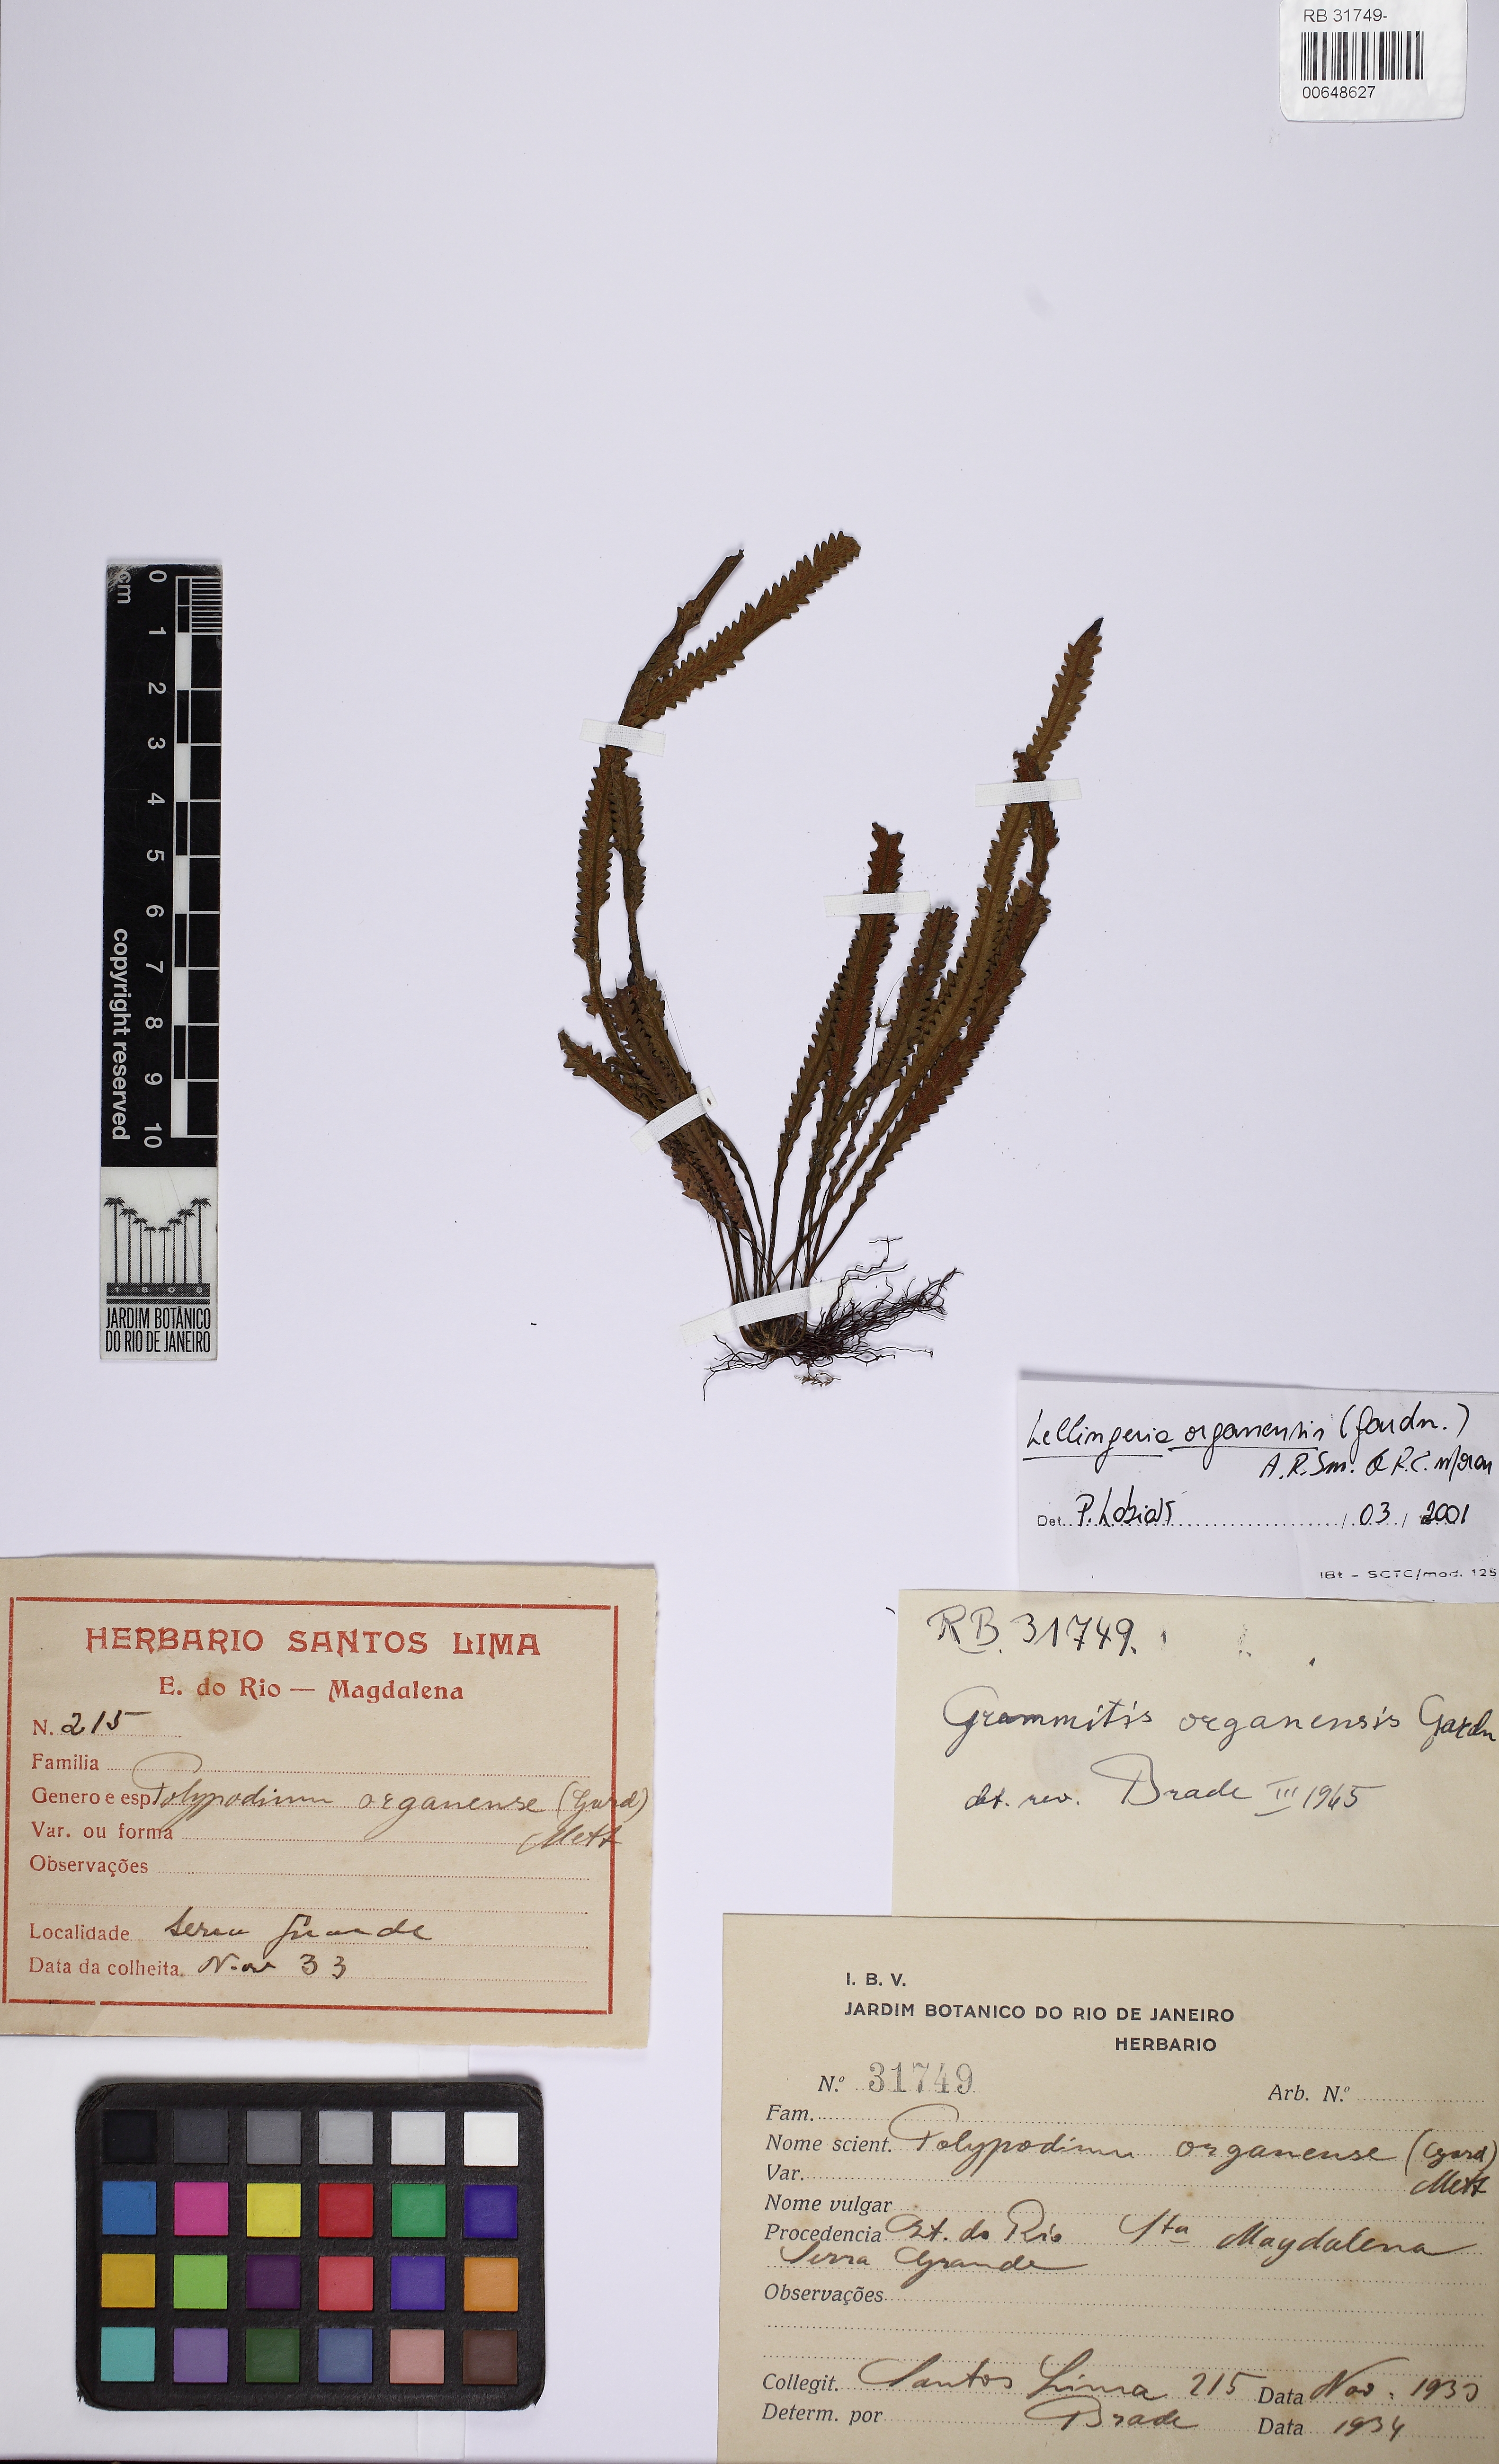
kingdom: Plantae
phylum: Tracheophyta
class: Polypodiopsida
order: Polypodiales
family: Polypodiaceae
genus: Leucotrichum
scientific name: Leucotrichum organense
